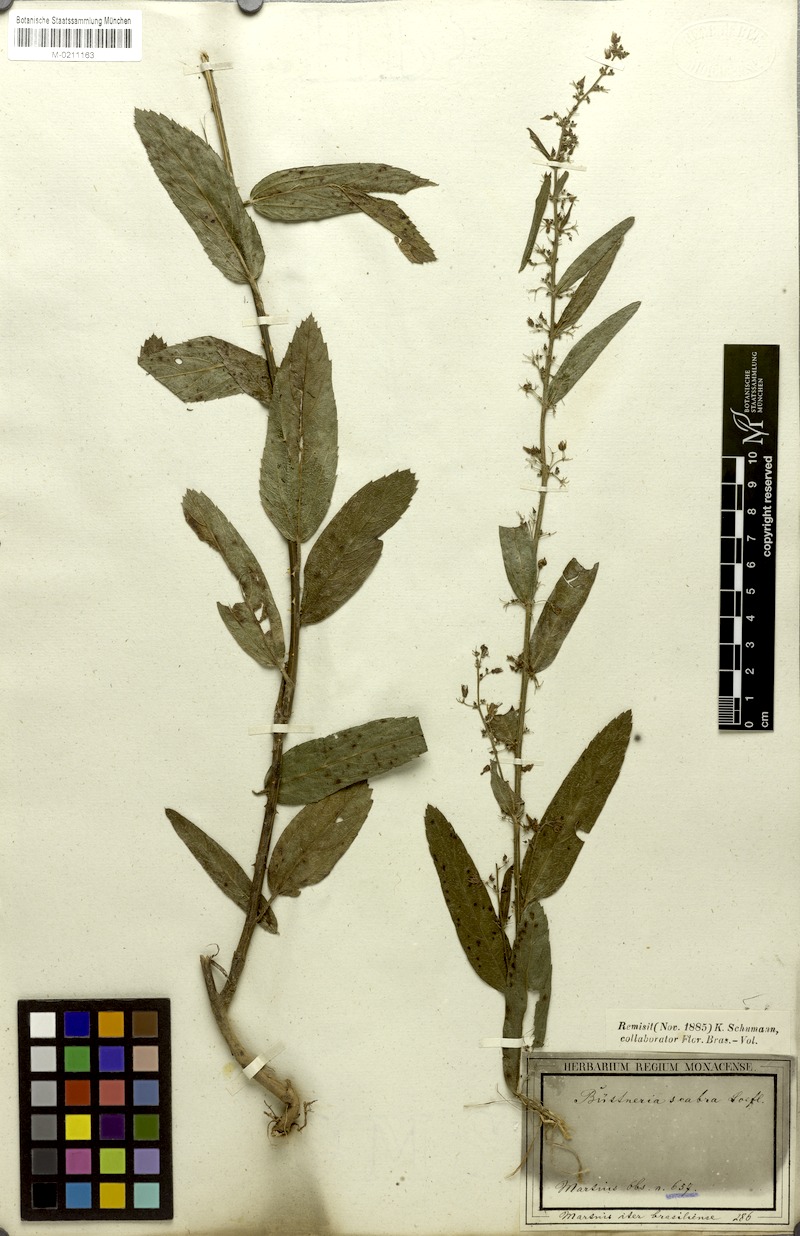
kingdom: Plantae
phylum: Tracheophyta
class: Magnoliopsida
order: Malvales
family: Malvaceae
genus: Byttneria
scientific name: Byttneria scabra
